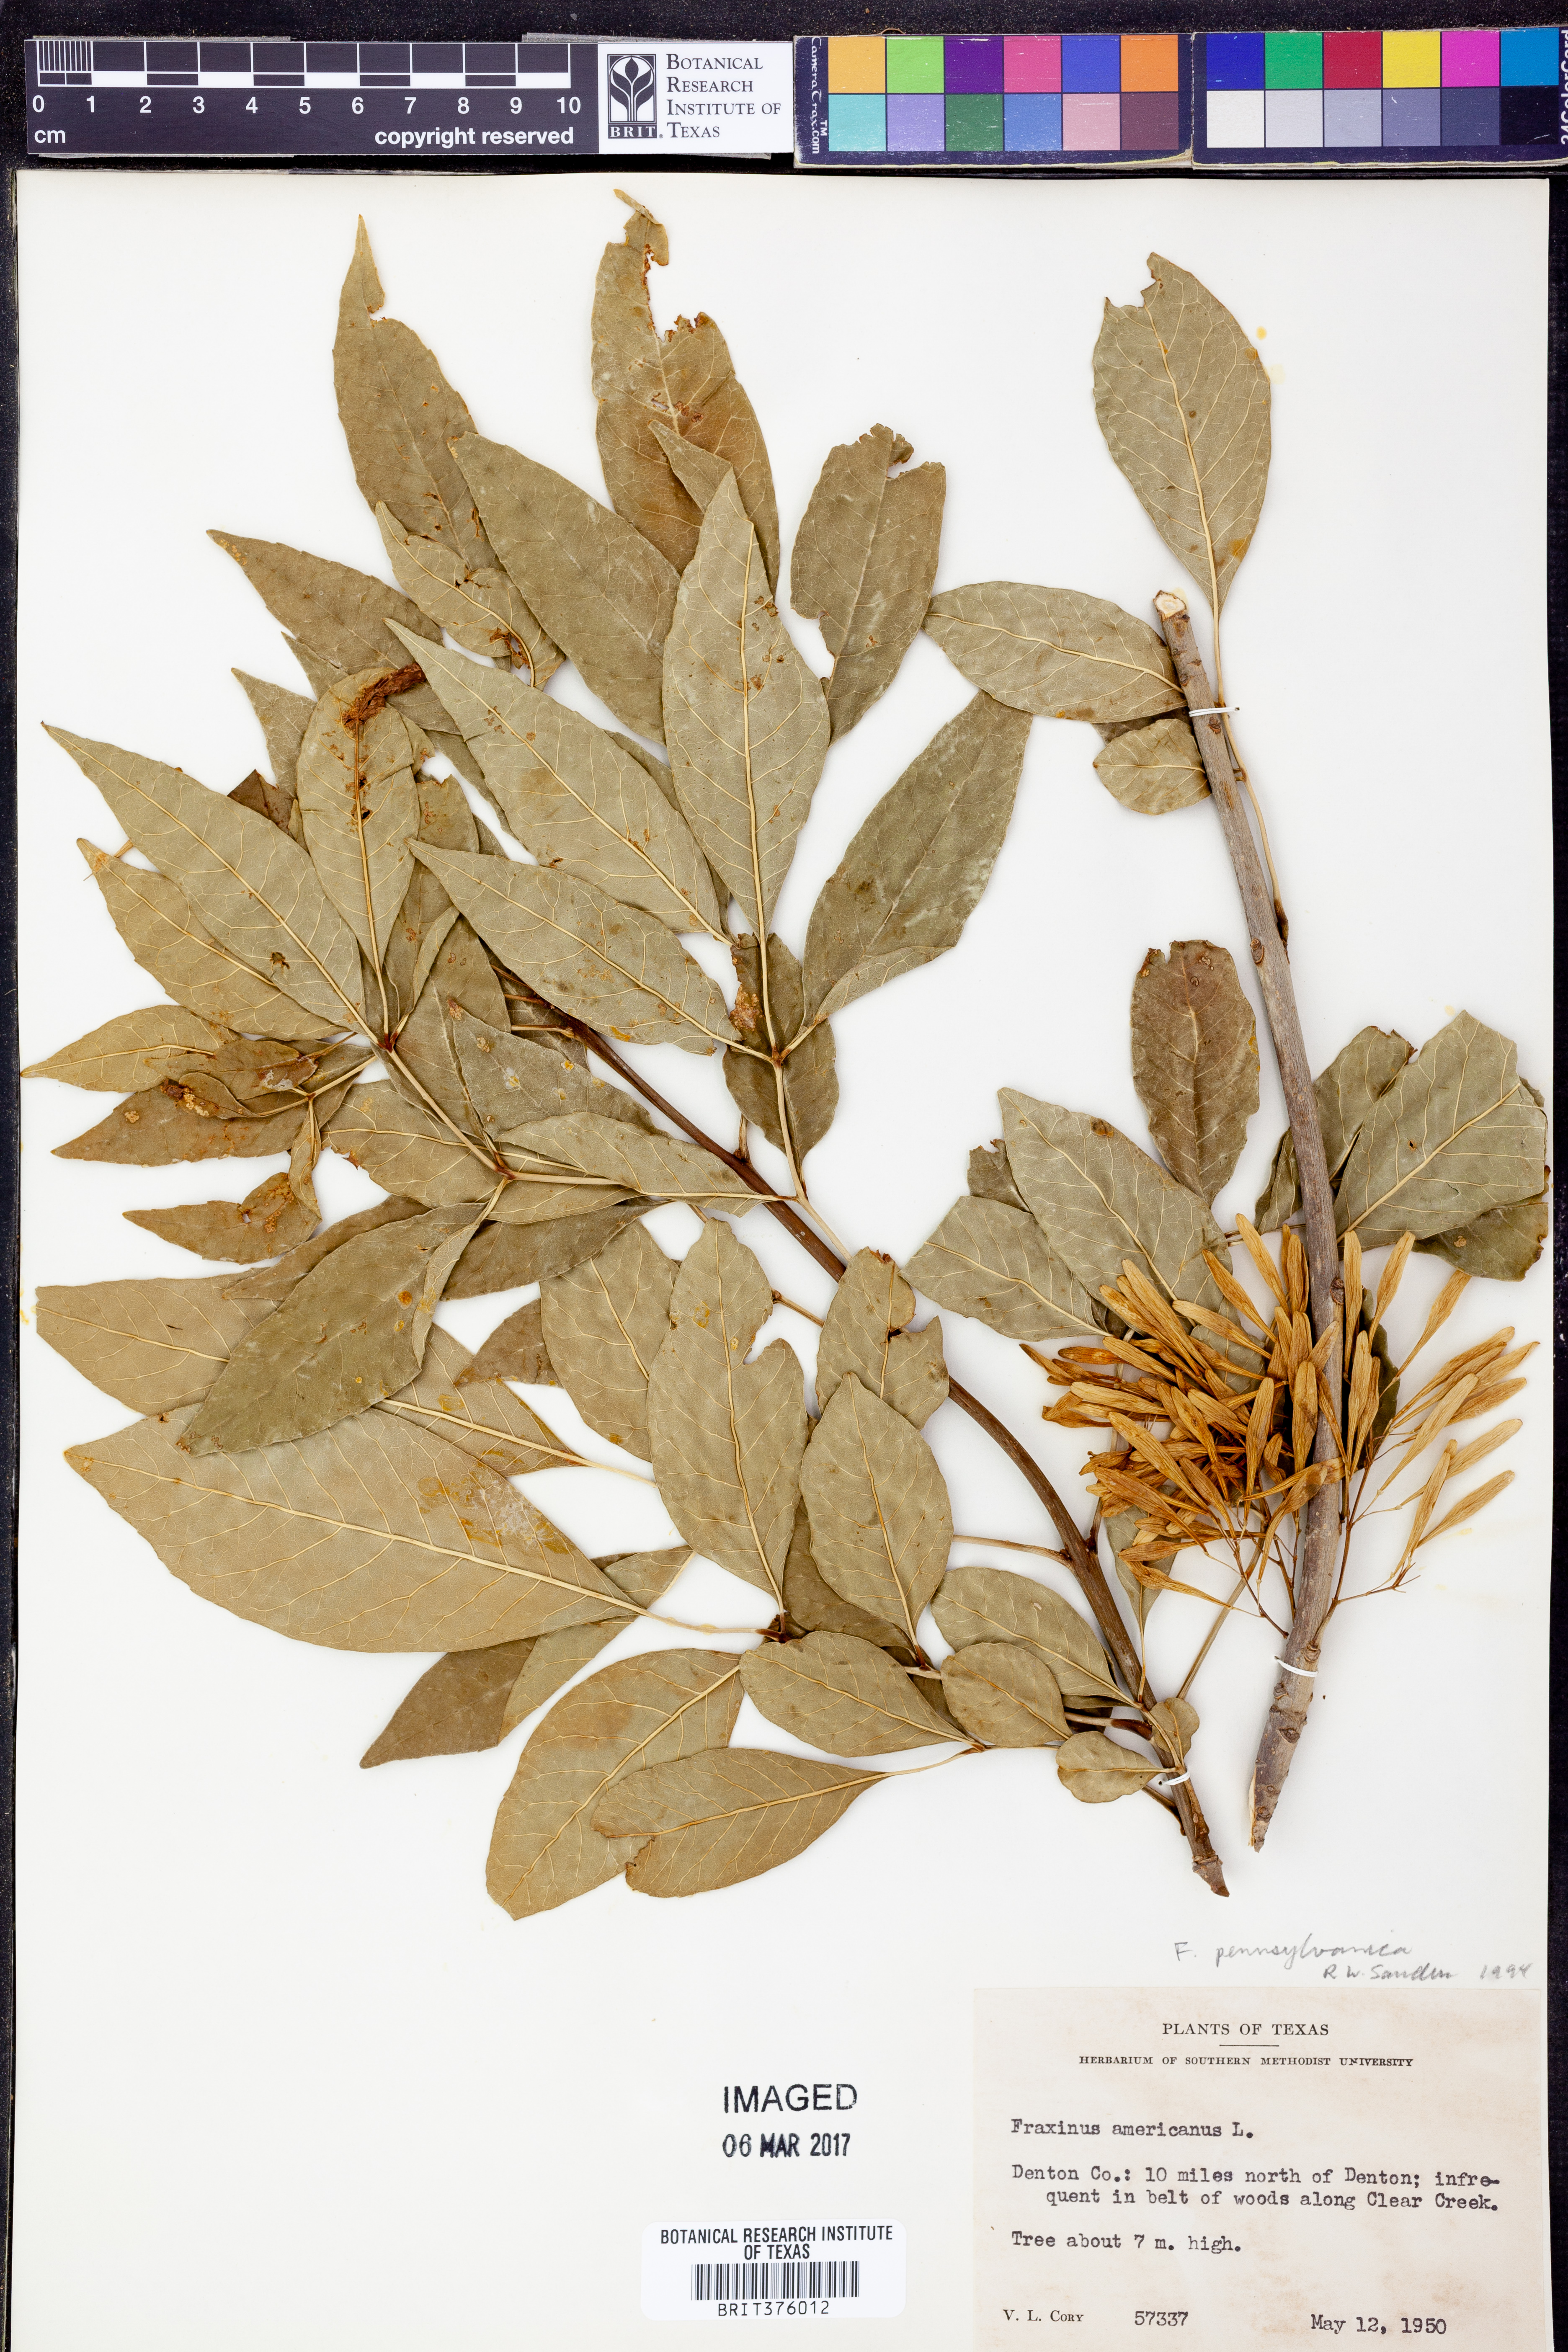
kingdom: Plantae
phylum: Tracheophyta
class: Magnoliopsida
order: Lamiales
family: Oleaceae
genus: Fraxinus
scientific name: Fraxinus pennsylvanica
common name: Green ash
